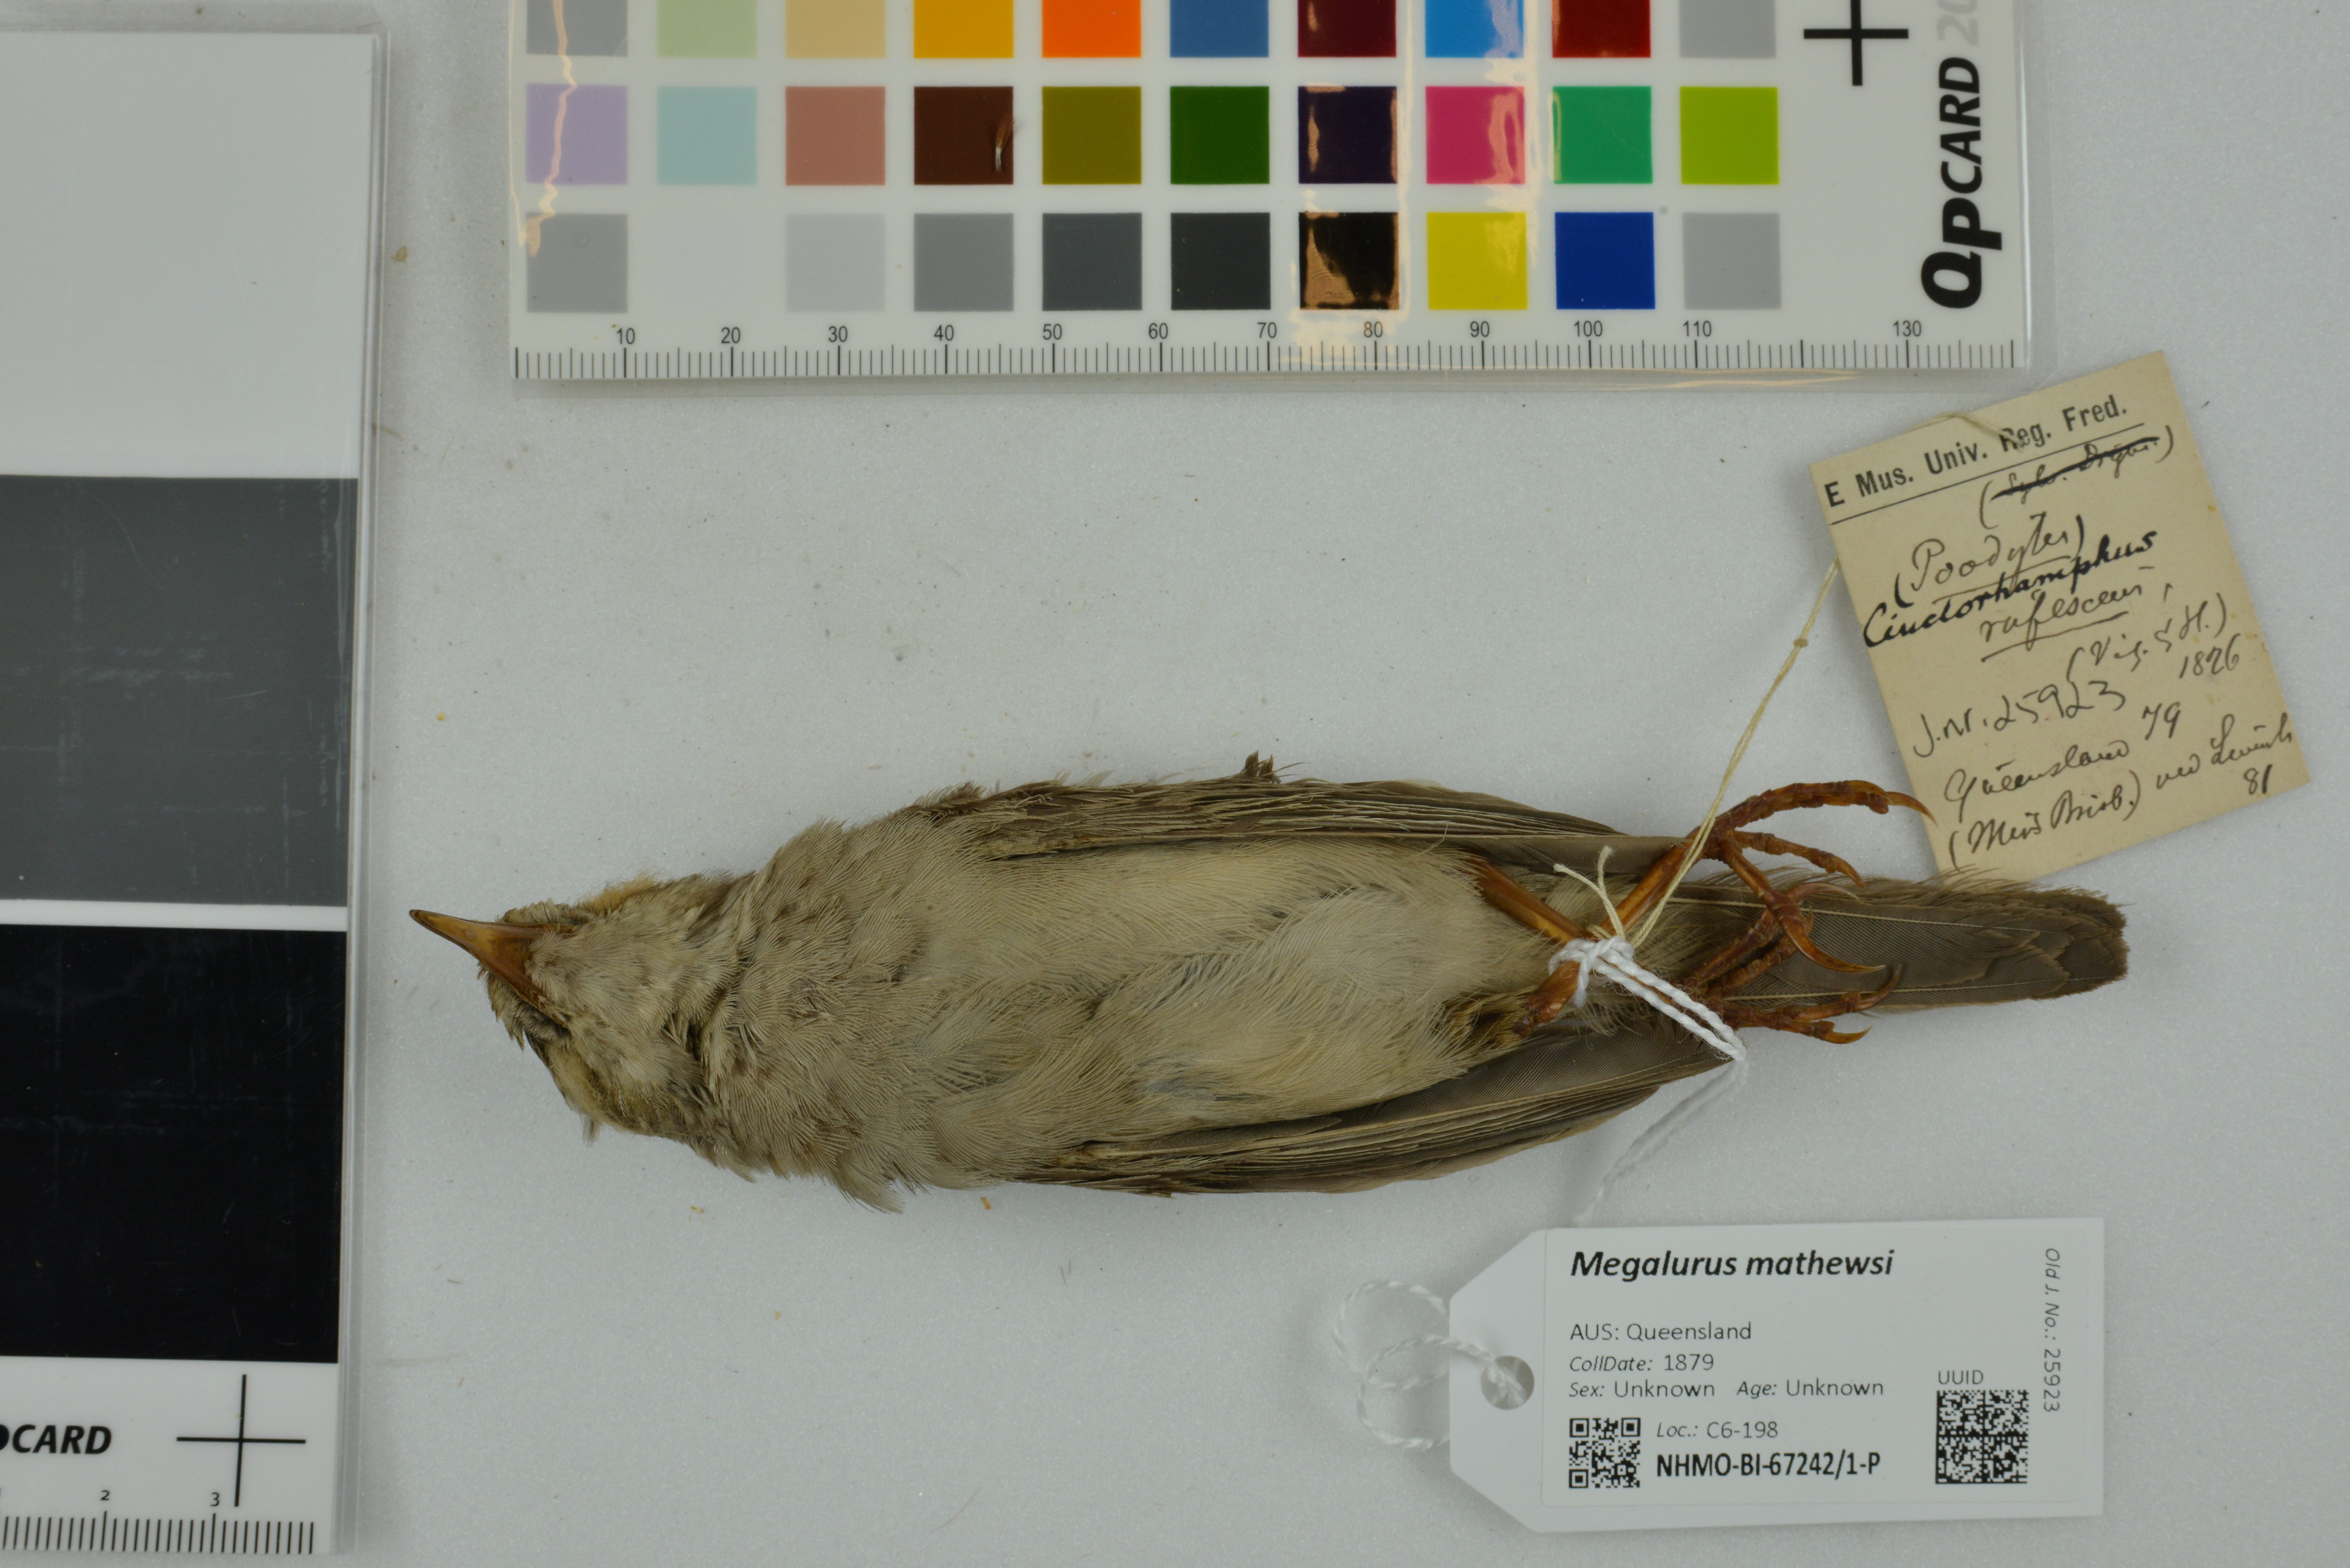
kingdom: Animalia
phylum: Chordata
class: Aves
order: Passeriformes
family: Locustellidae
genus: Megalurus
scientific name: Megalurus mathewsi
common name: Rufous songlark
